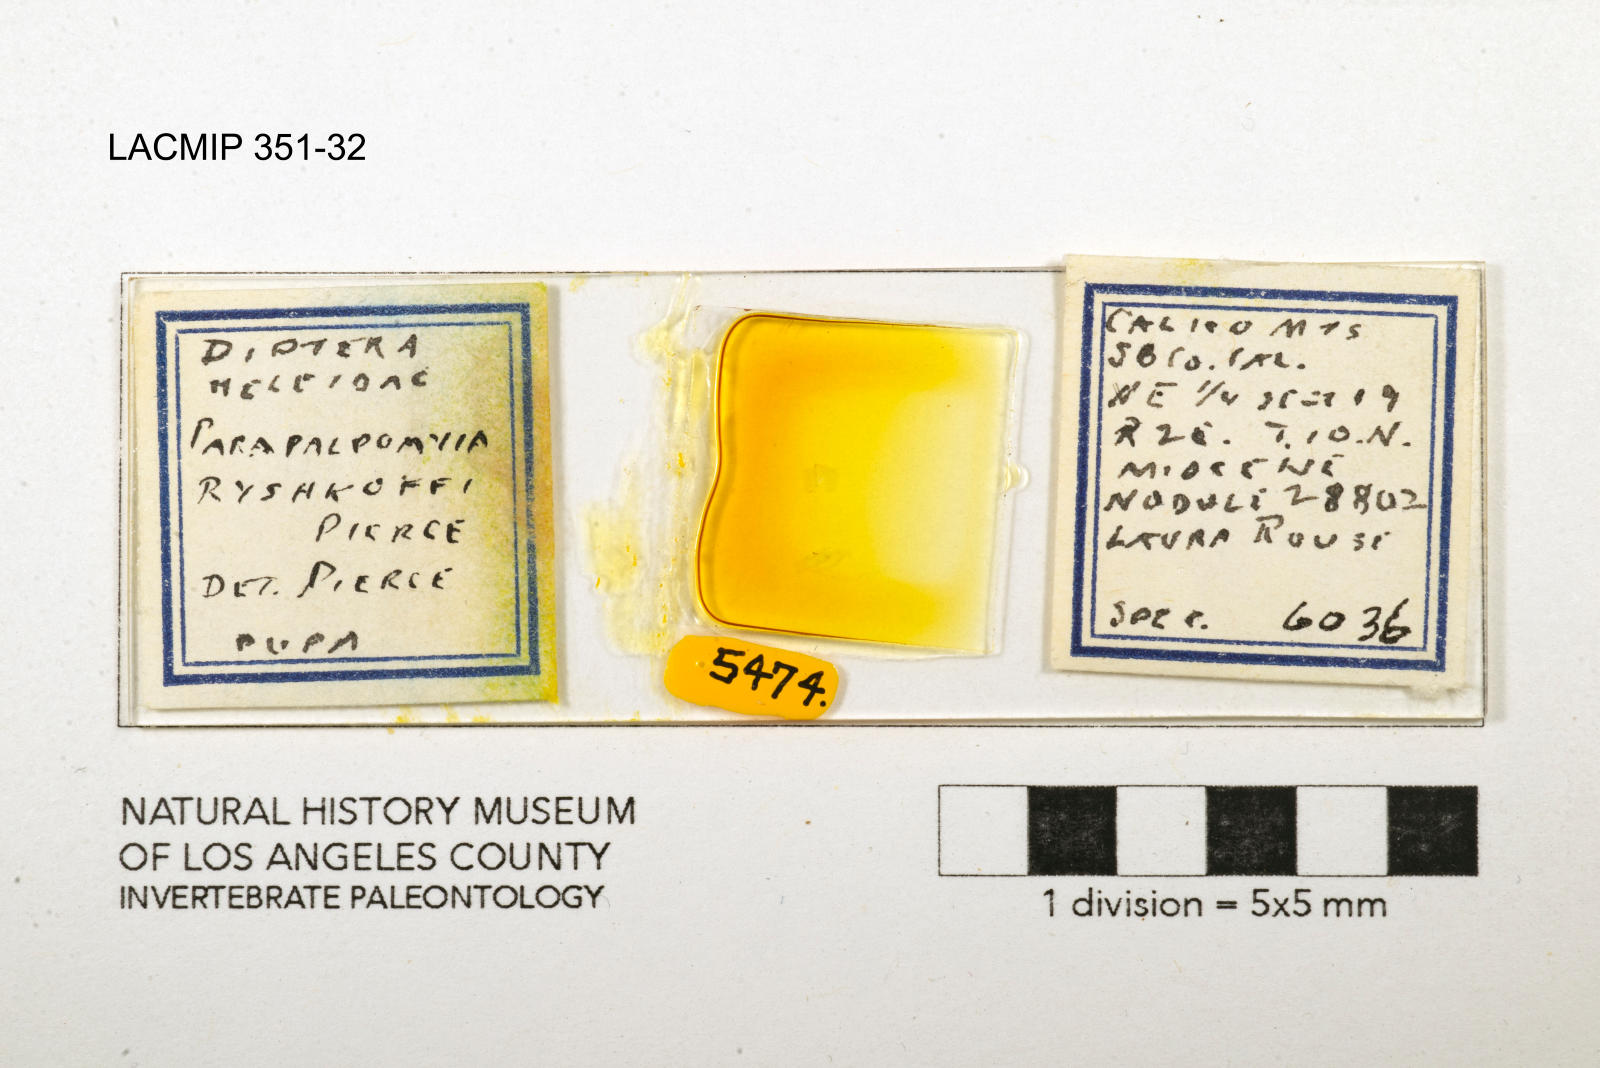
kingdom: Animalia
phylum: Arthropoda
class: Insecta
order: Diptera
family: Ceratopogonidae
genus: Palpomyia
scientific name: Palpomyia ryshkoffi
